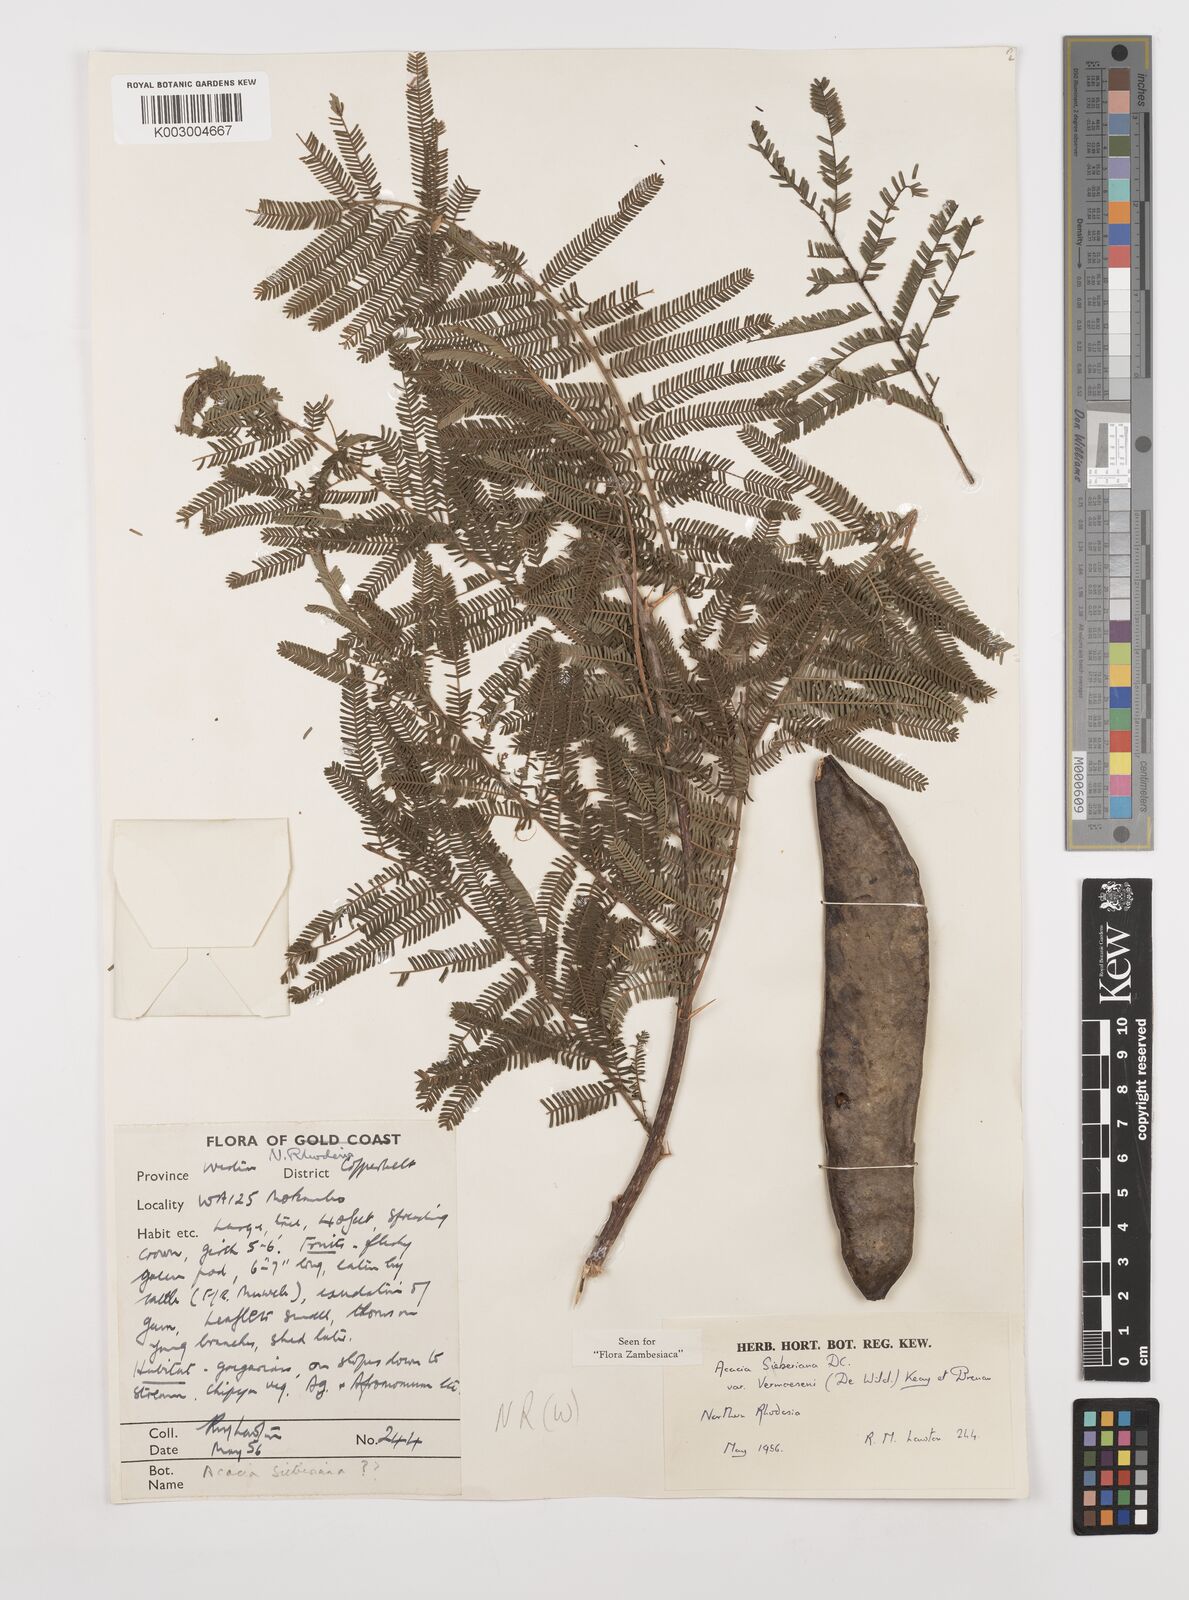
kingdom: Plantae
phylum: Tracheophyta
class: Magnoliopsida
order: Fabales
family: Fabaceae
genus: Vachellia
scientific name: Vachellia sieberiana
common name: Flat-topped thorn
